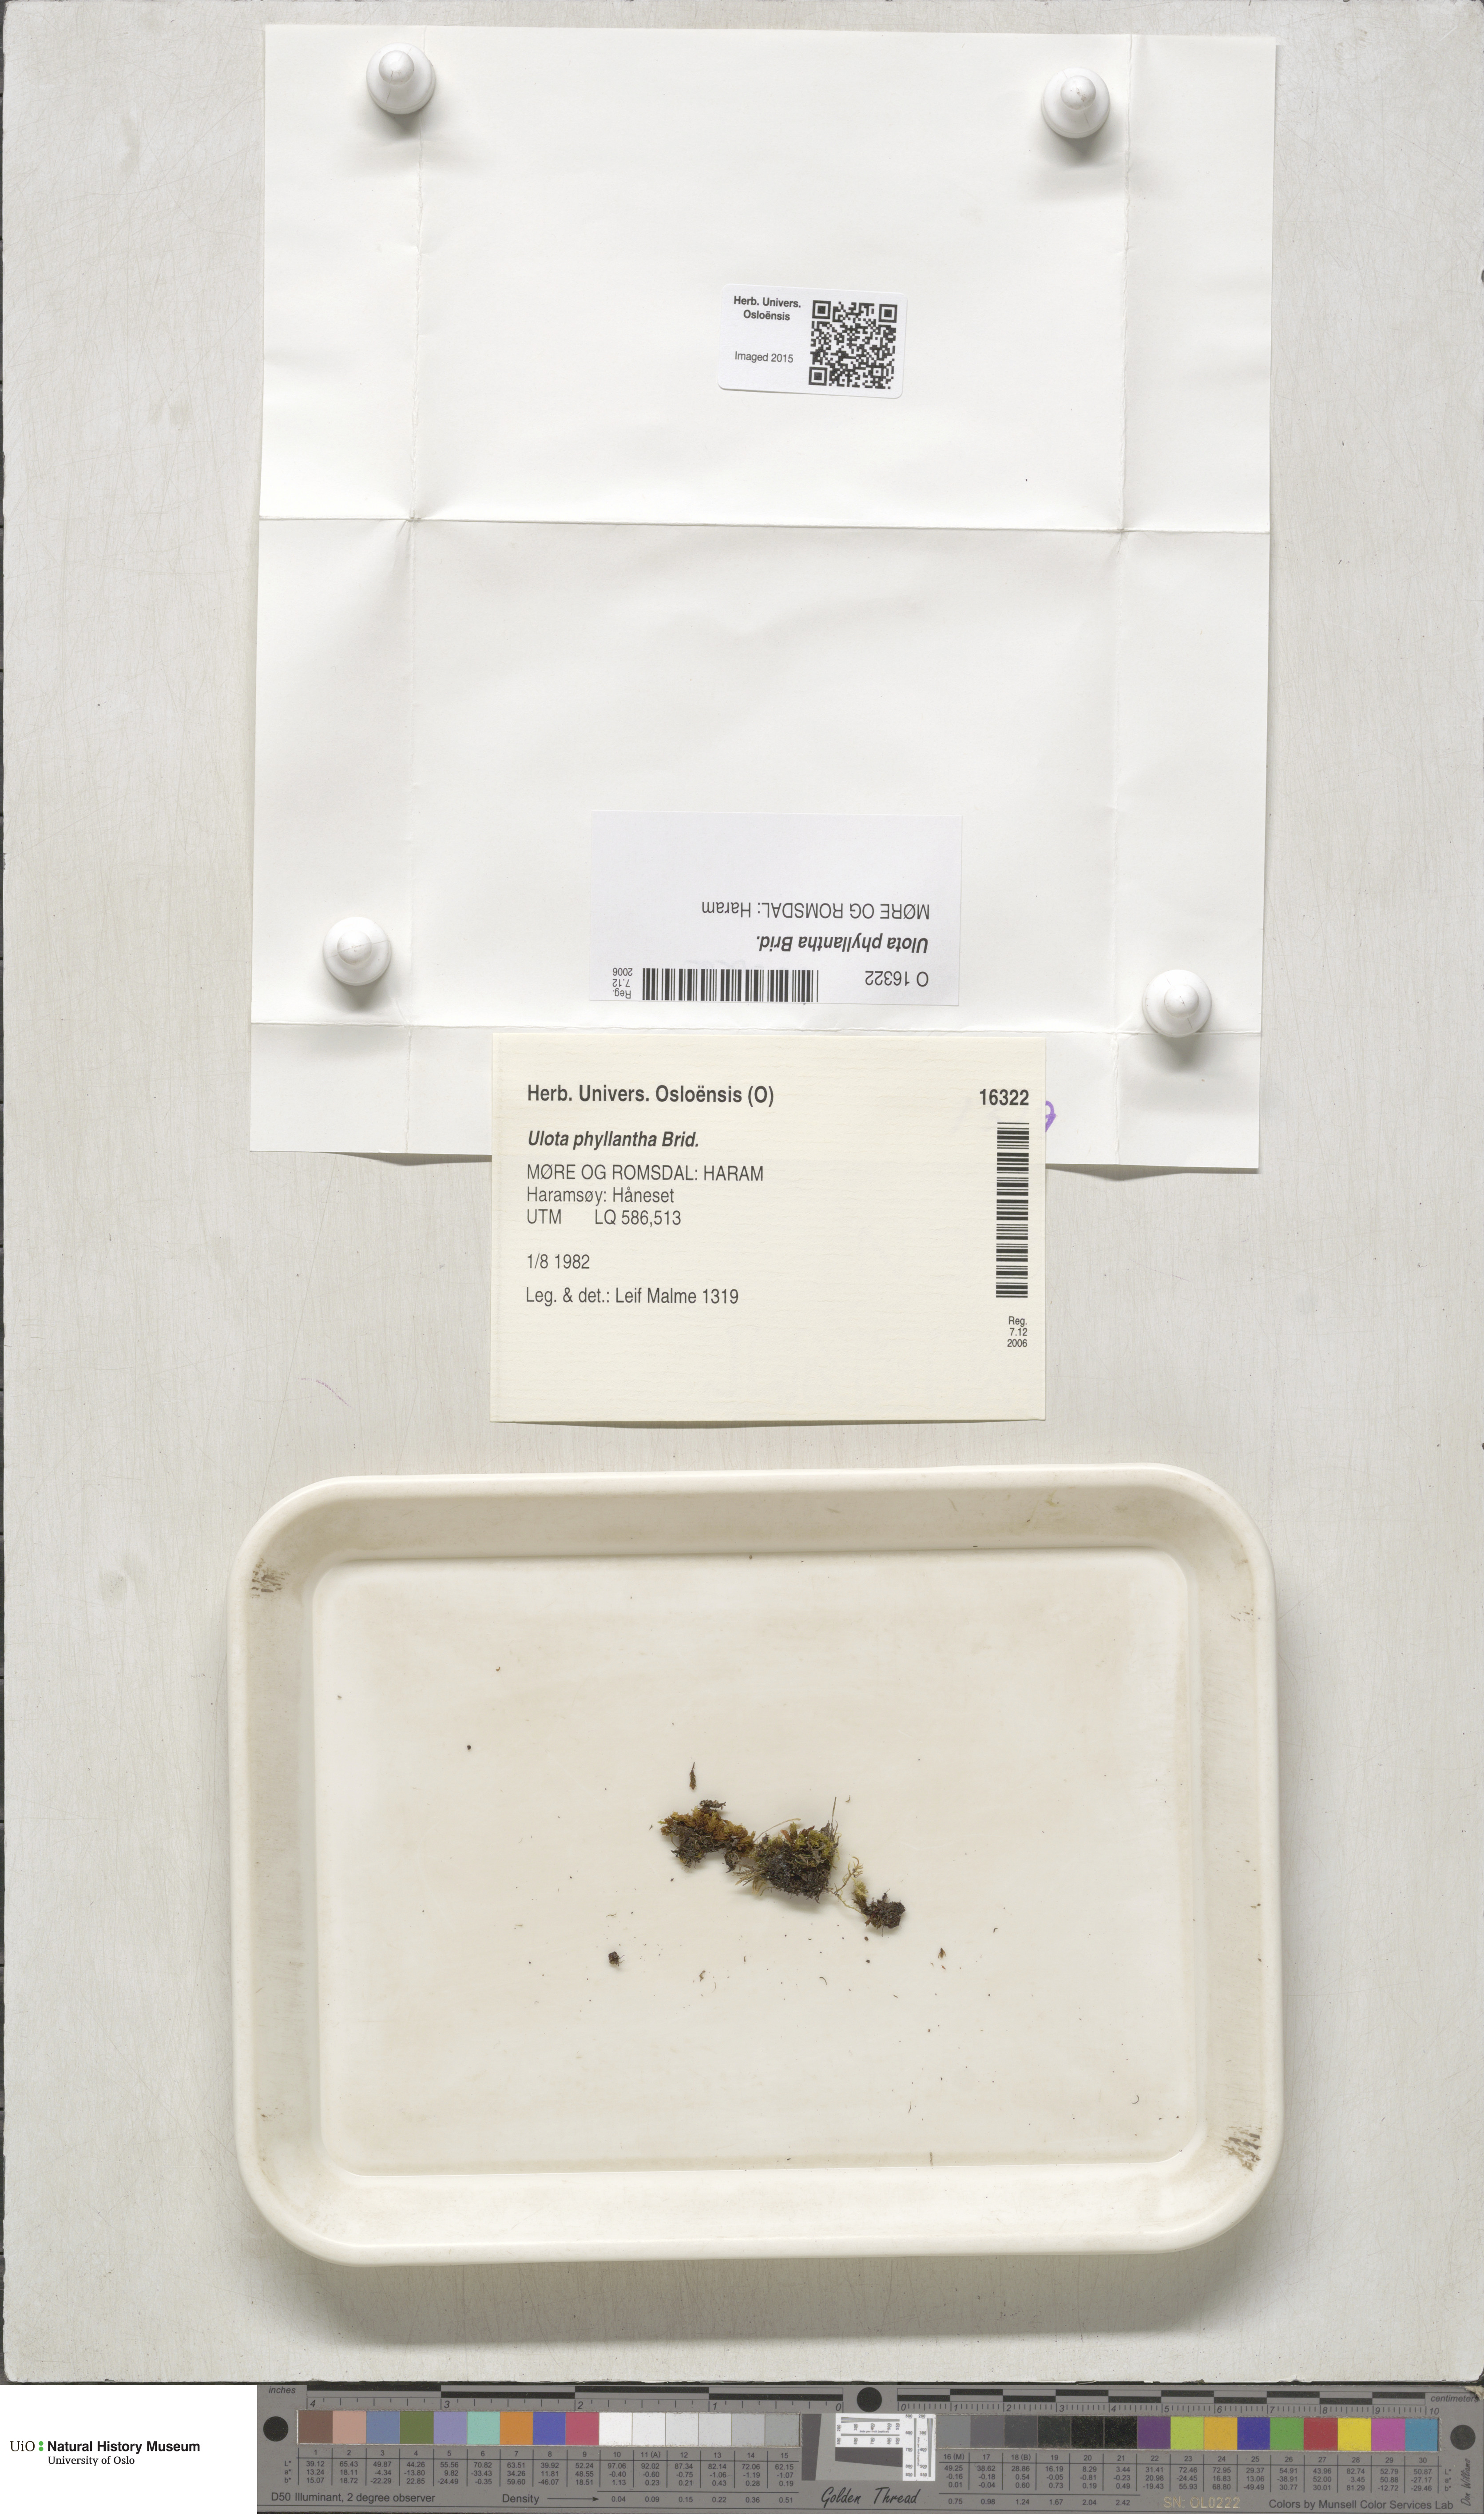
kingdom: Plantae
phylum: Bryophyta
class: Bryopsida
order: Orthotrichales
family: Orthotrichaceae
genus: Plenogemma
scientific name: Plenogemma phyllantha
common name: Frizzled pincushion
